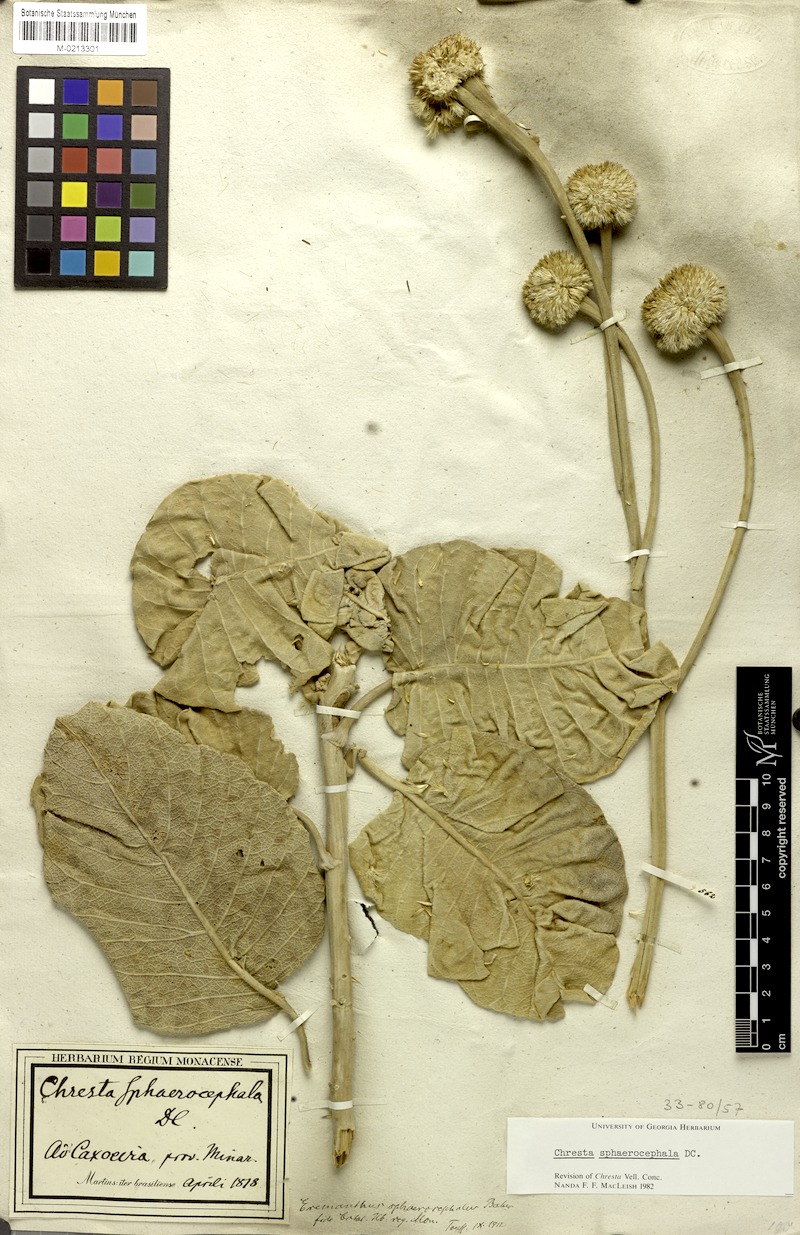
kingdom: Plantae
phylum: Tracheophyta
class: Magnoliopsida
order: Asterales
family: Asteraceae
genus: Chresta
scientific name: Chresta sphaerocephala
